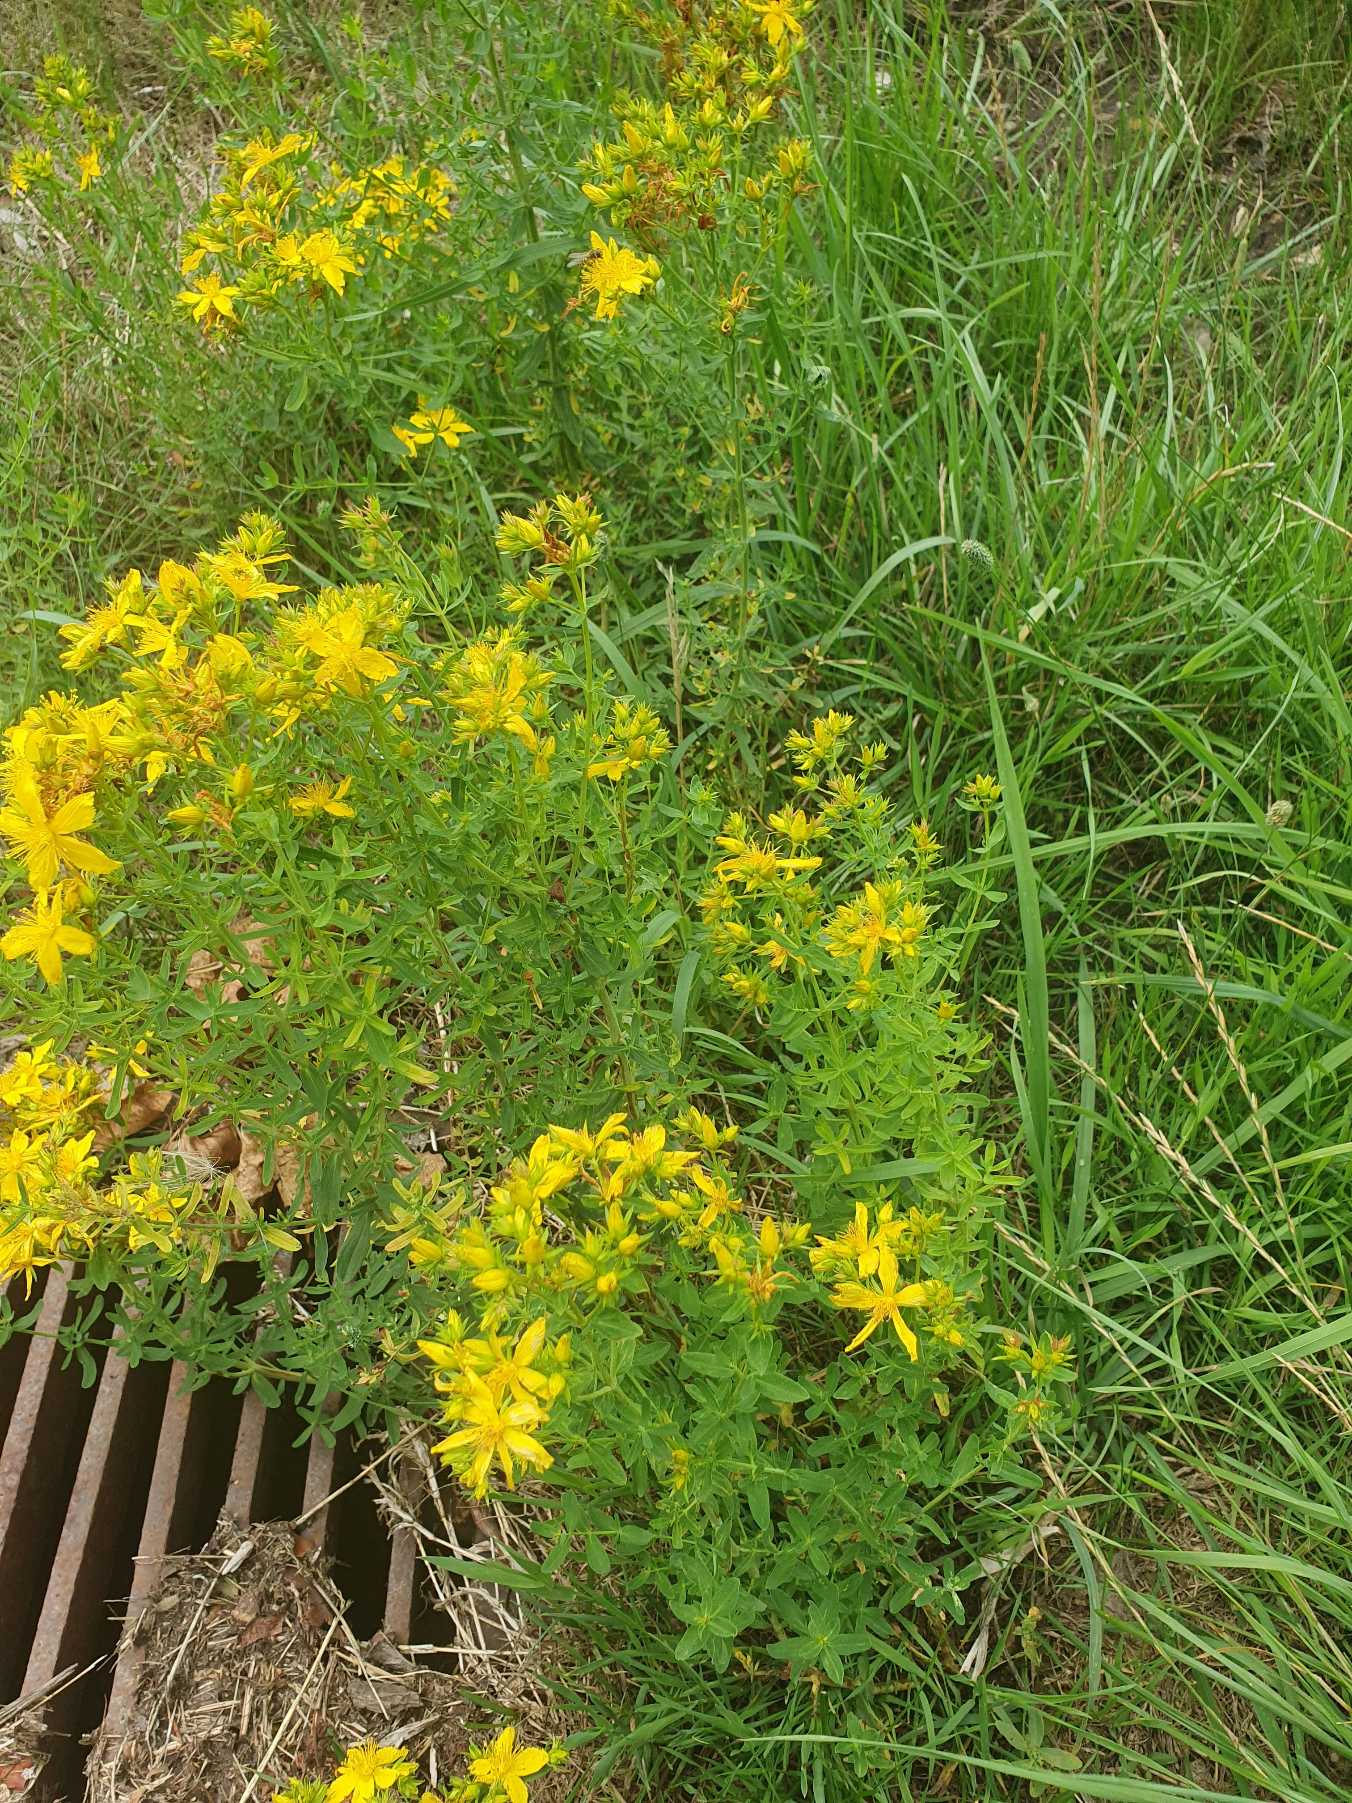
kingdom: Plantae
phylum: Tracheophyta
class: Magnoliopsida
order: Malpighiales
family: Hypericaceae
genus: Hypericum
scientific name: Hypericum perforatum
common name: Prikbladet perikon
